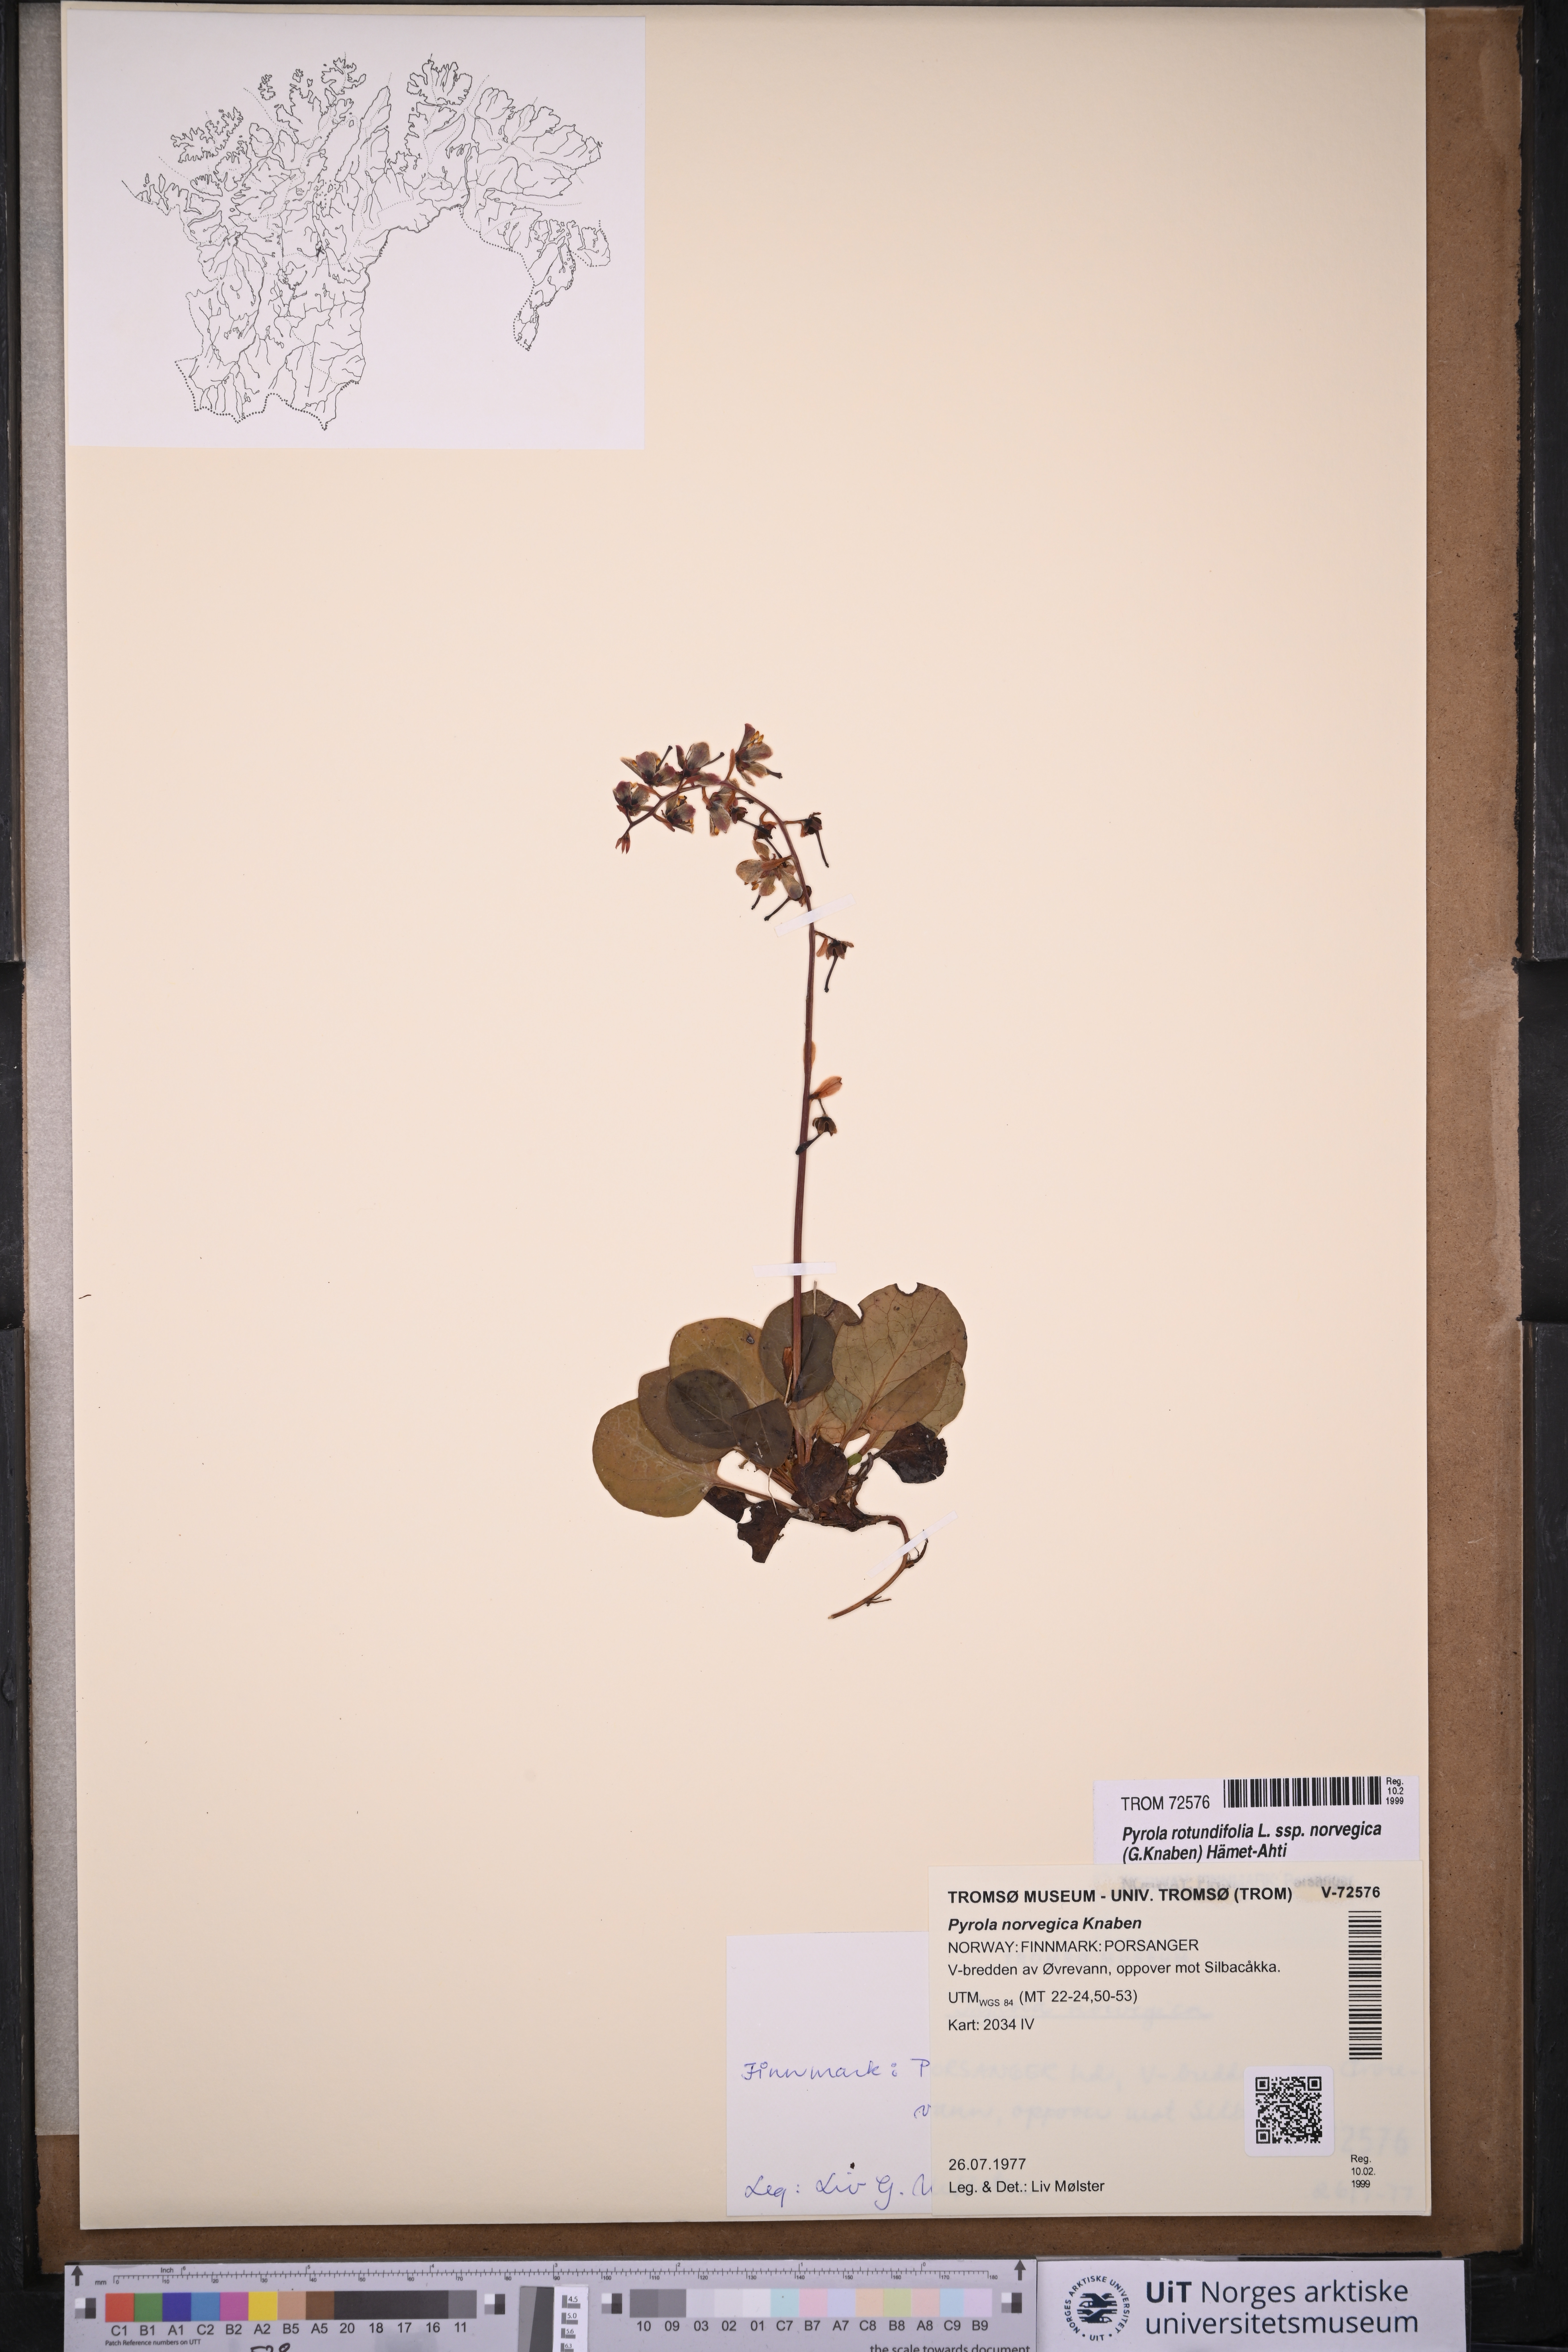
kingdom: Plantae
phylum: Tracheophyta
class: Magnoliopsida
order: Ericales
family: Ericaceae
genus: Pyrola
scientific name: Pyrola rotundifolia
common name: Round-leaved wintergreen
